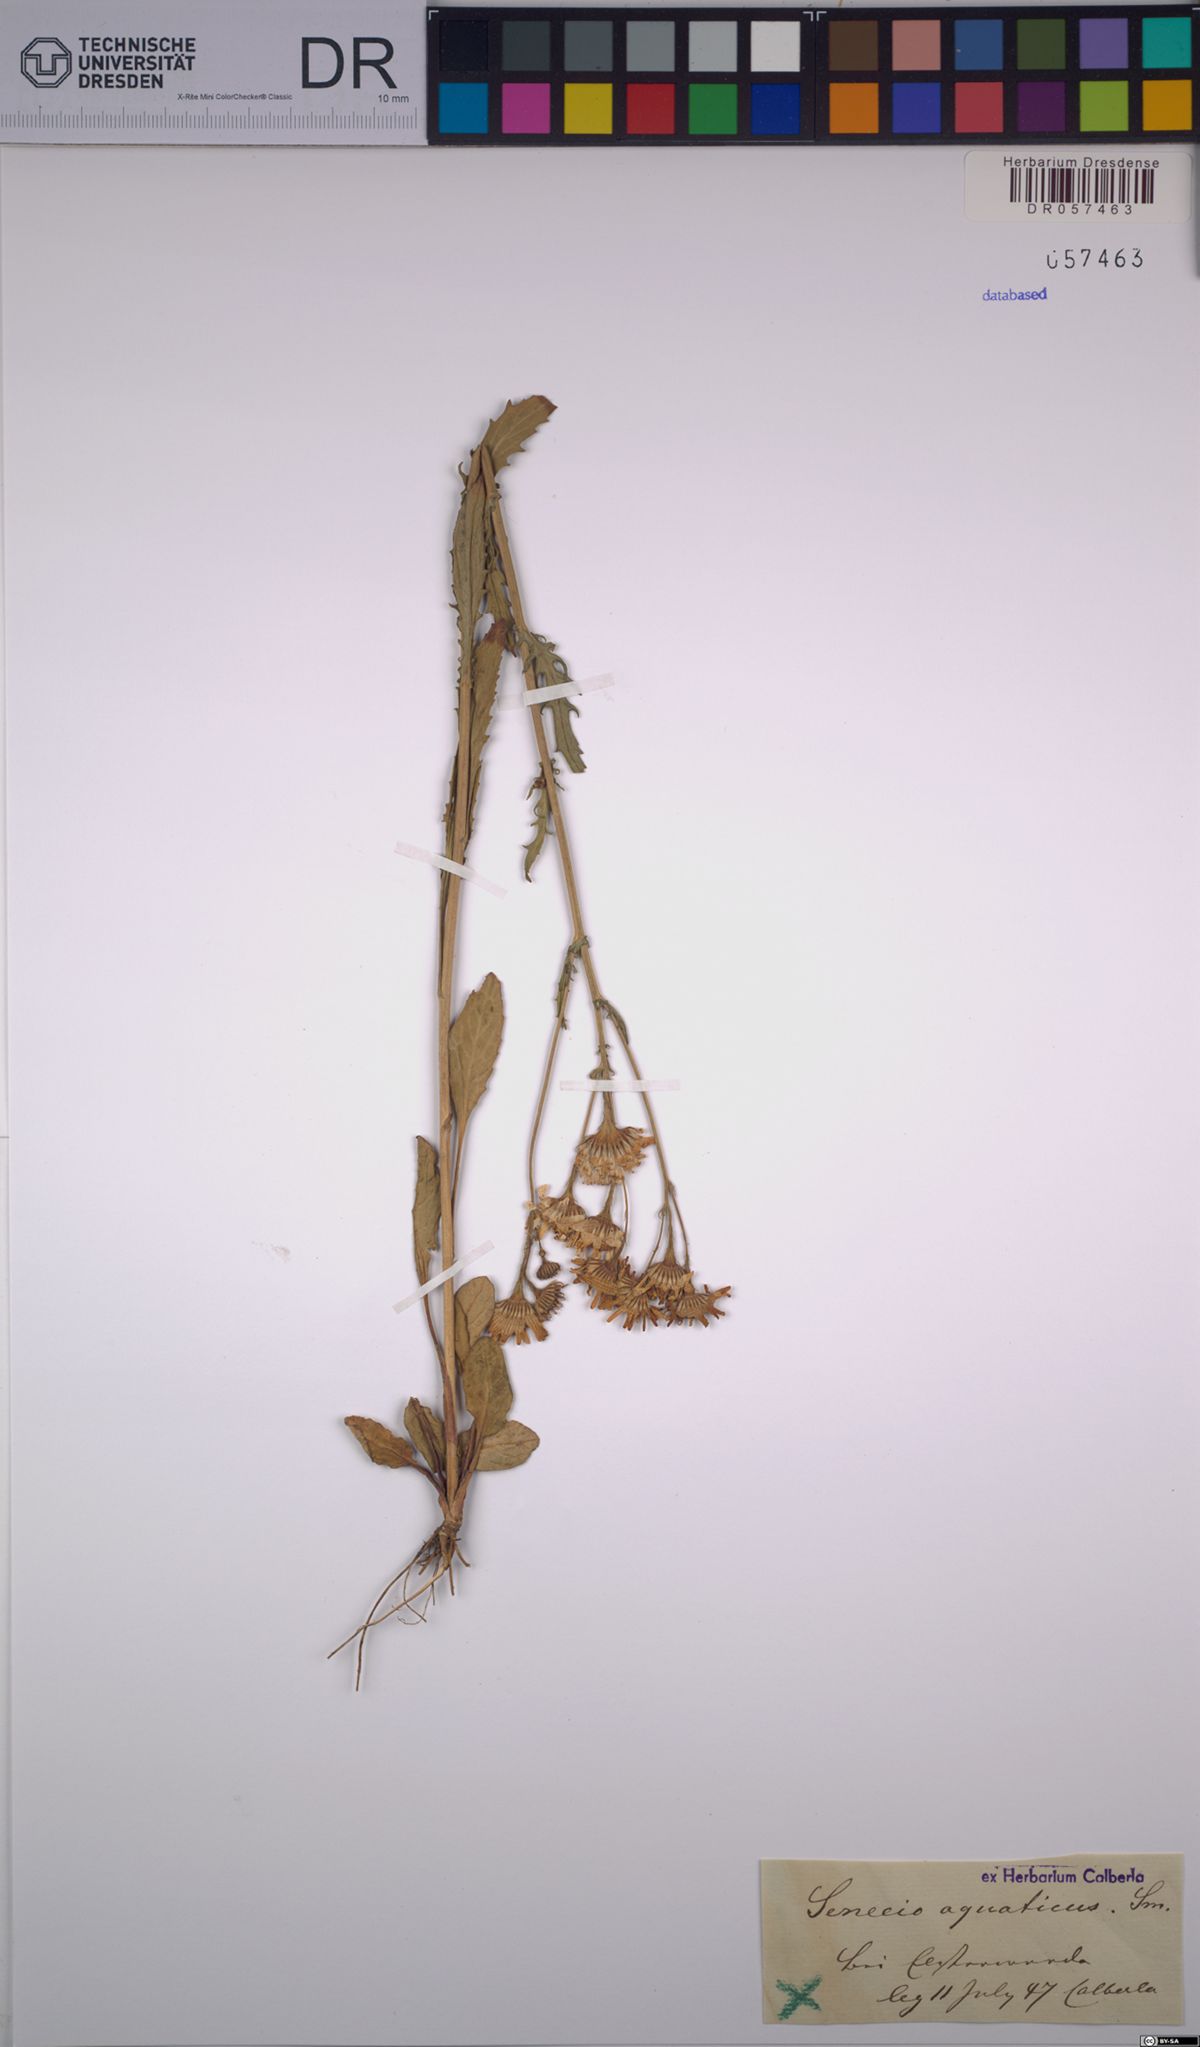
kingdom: Plantae
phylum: Tracheophyta
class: Magnoliopsida
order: Asterales
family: Asteraceae
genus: Jacobaea
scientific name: Jacobaea aquatica
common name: Water ragwort
